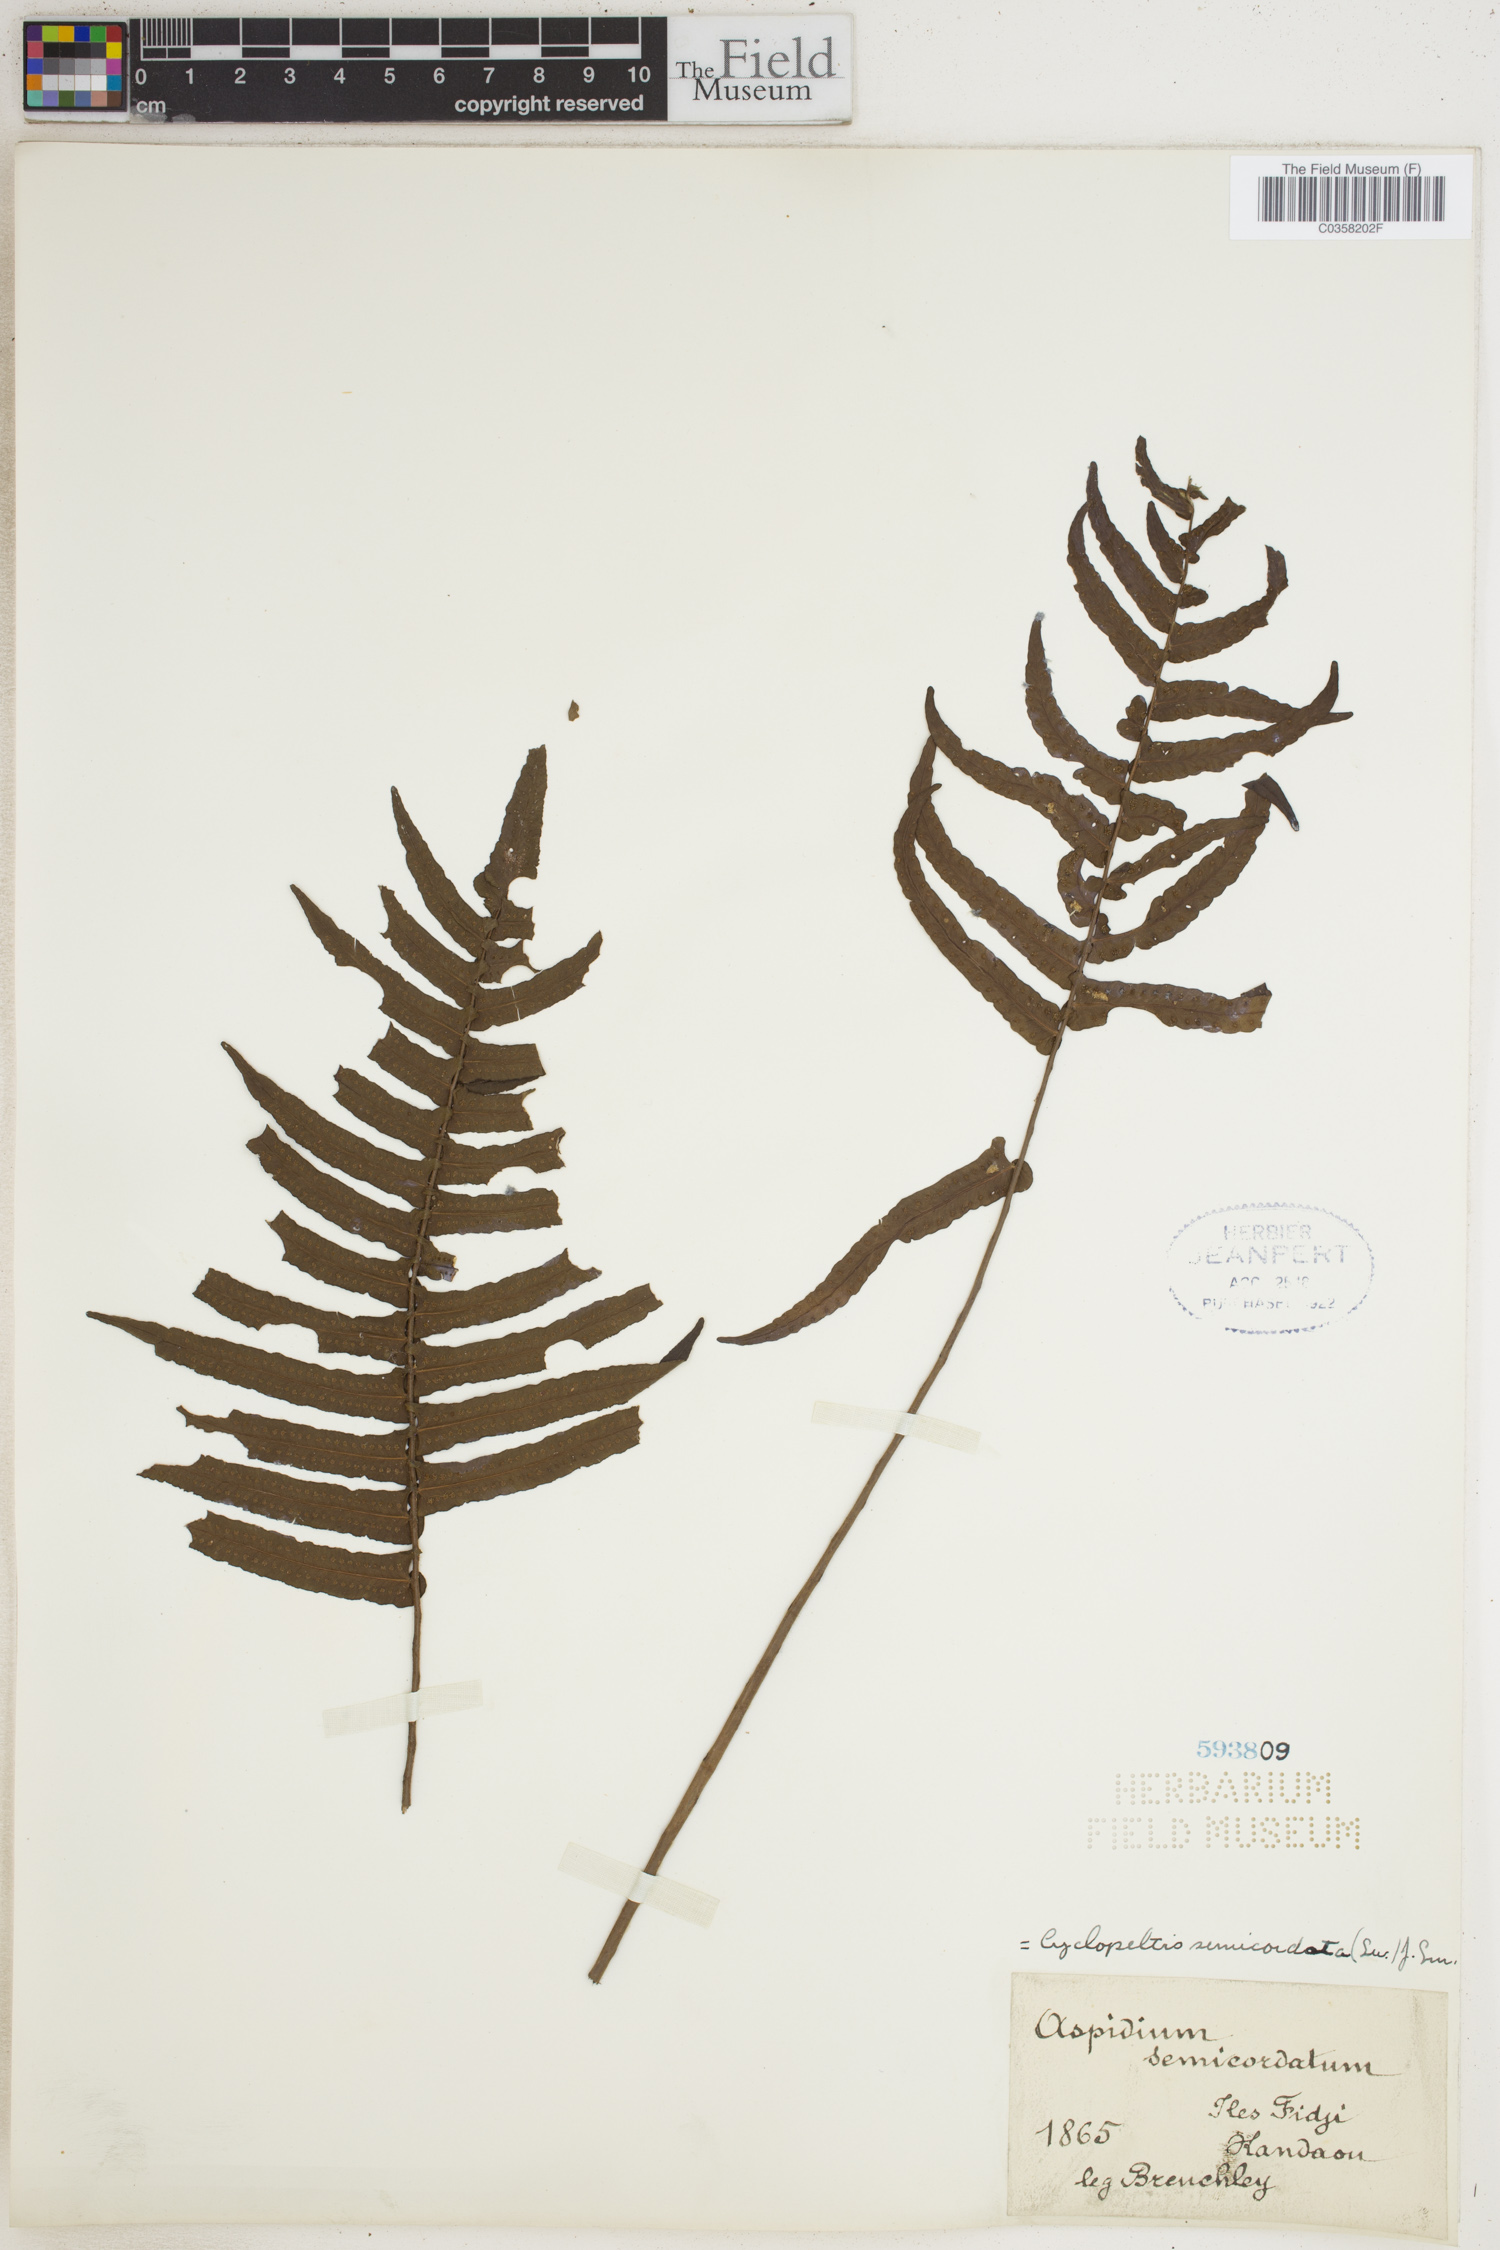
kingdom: Plantae
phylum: Tracheophyta
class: Polypodiopsida
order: Polypodiales
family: Lomariopsidaceae
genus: Cyclopeltis
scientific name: Cyclopeltis semicordata
